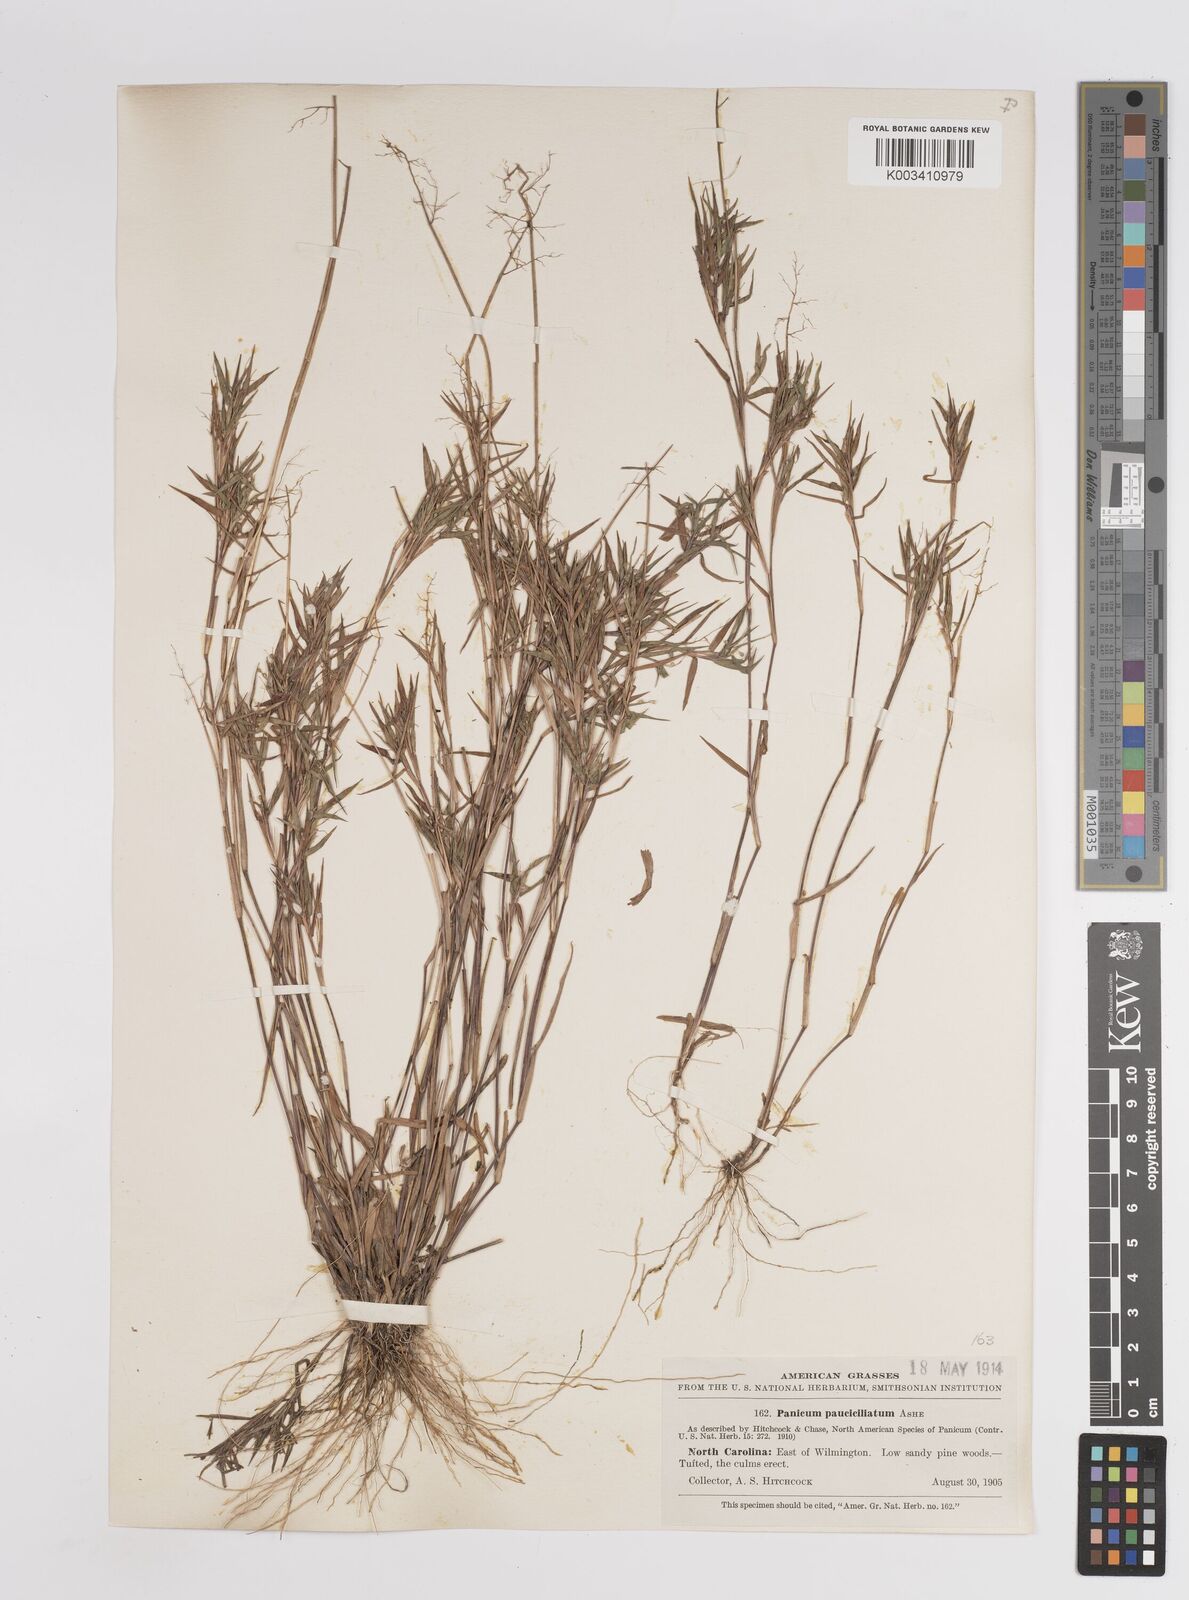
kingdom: Plantae
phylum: Tracheophyta
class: Liliopsida
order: Poales
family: Poaceae
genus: Dichanthelium
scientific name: Dichanthelium portoricense
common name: American panicgrass
